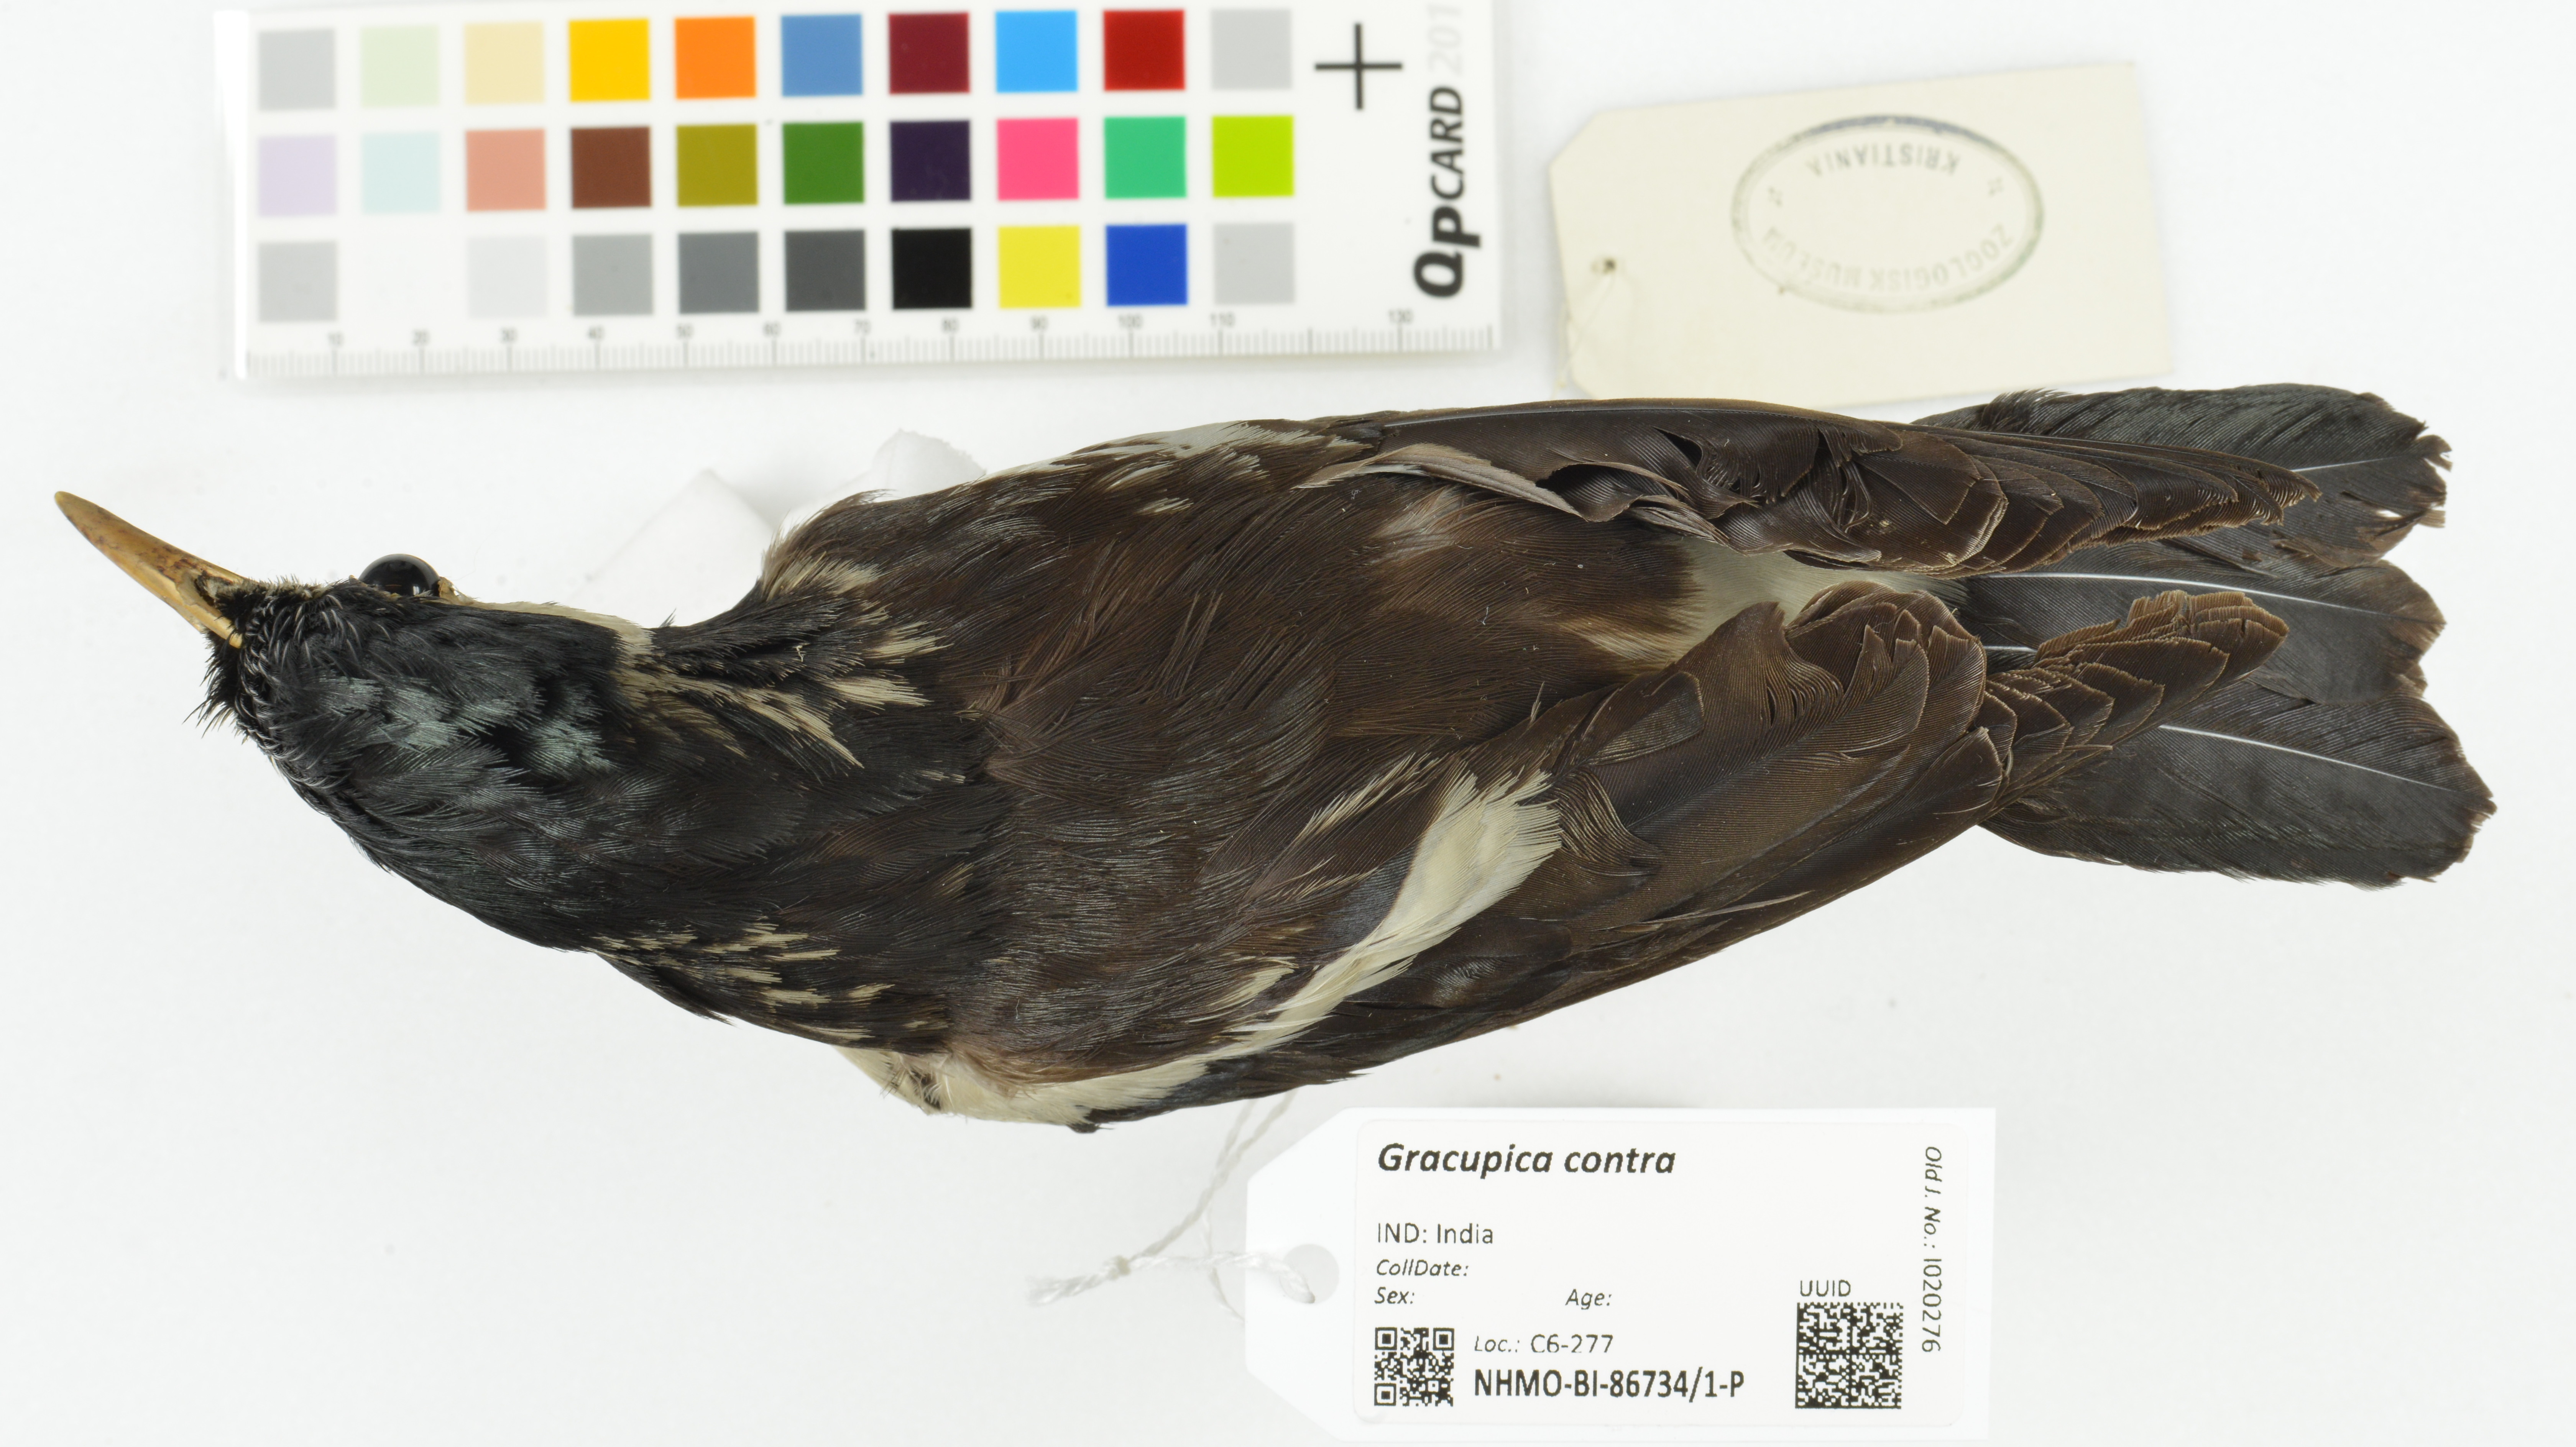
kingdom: Animalia
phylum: Chordata
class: Aves
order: Passeriformes
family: Sturnidae
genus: Gracupica
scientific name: Gracupica contra
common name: Pied myna
